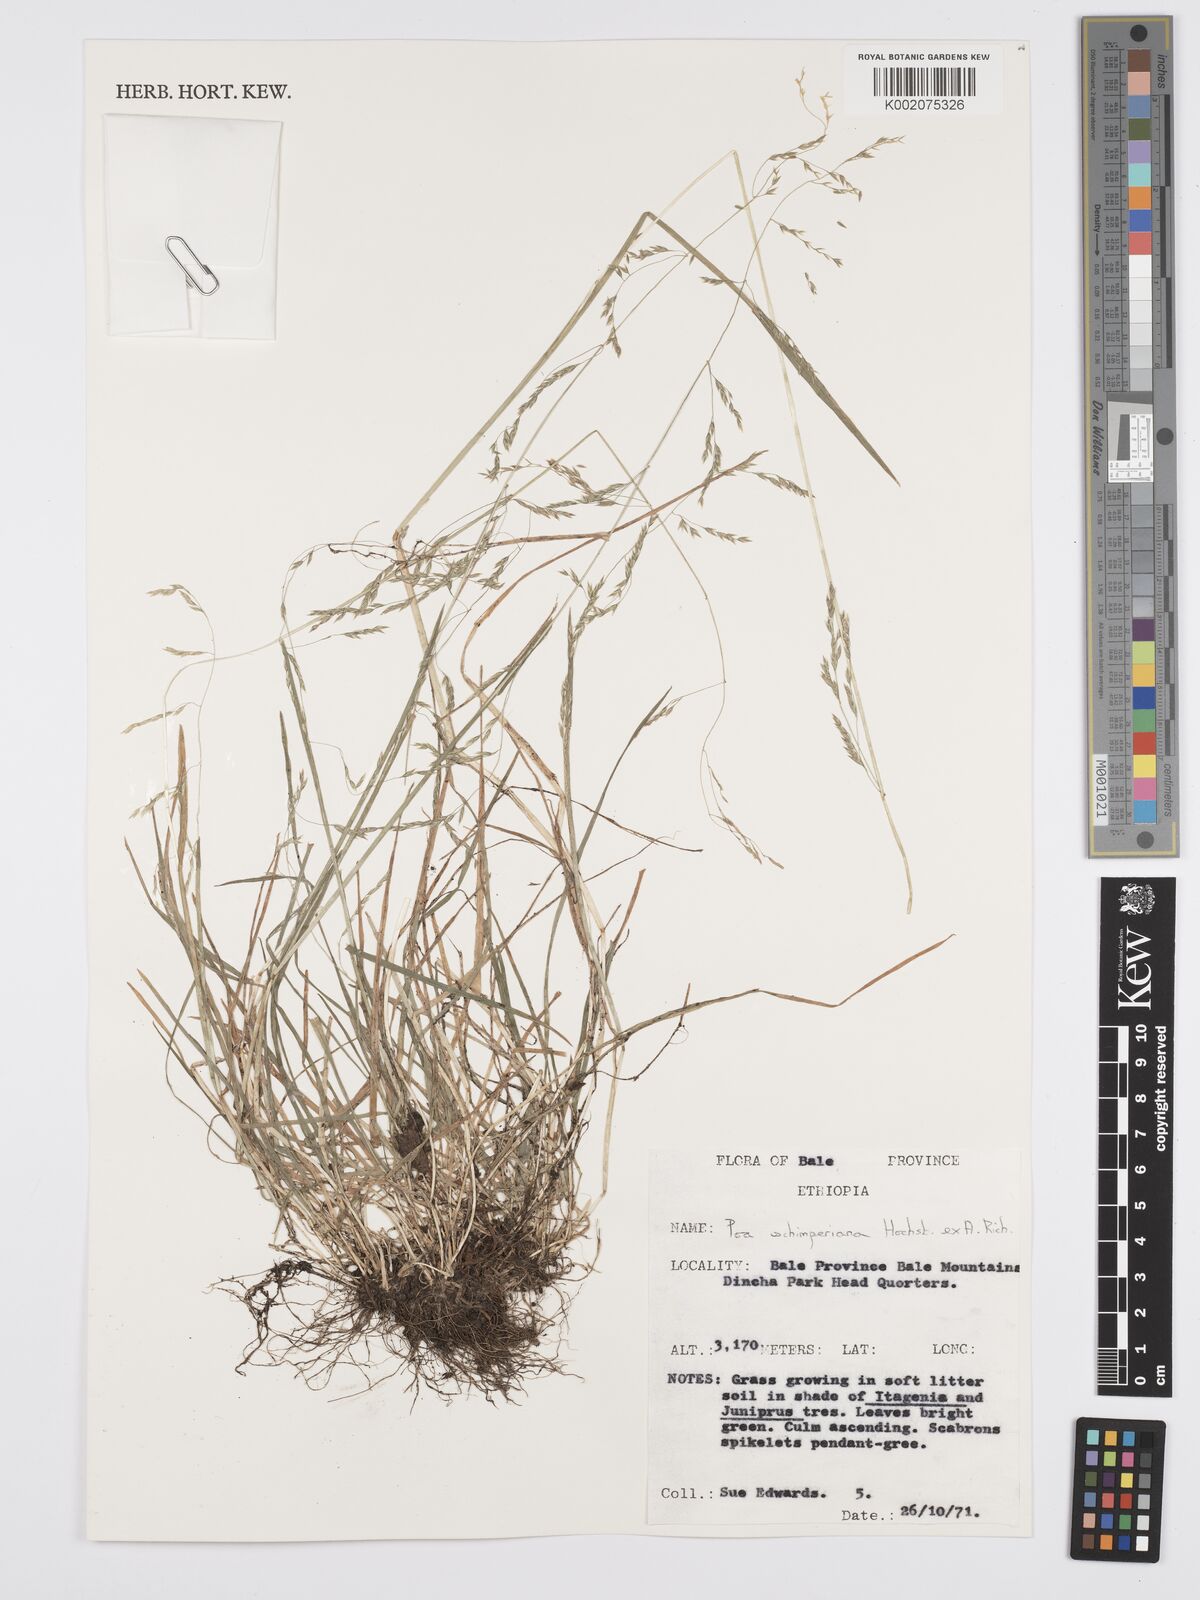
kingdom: Plantae
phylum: Tracheophyta
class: Liliopsida
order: Poales
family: Poaceae
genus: Poa
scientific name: Poa schimperiana
